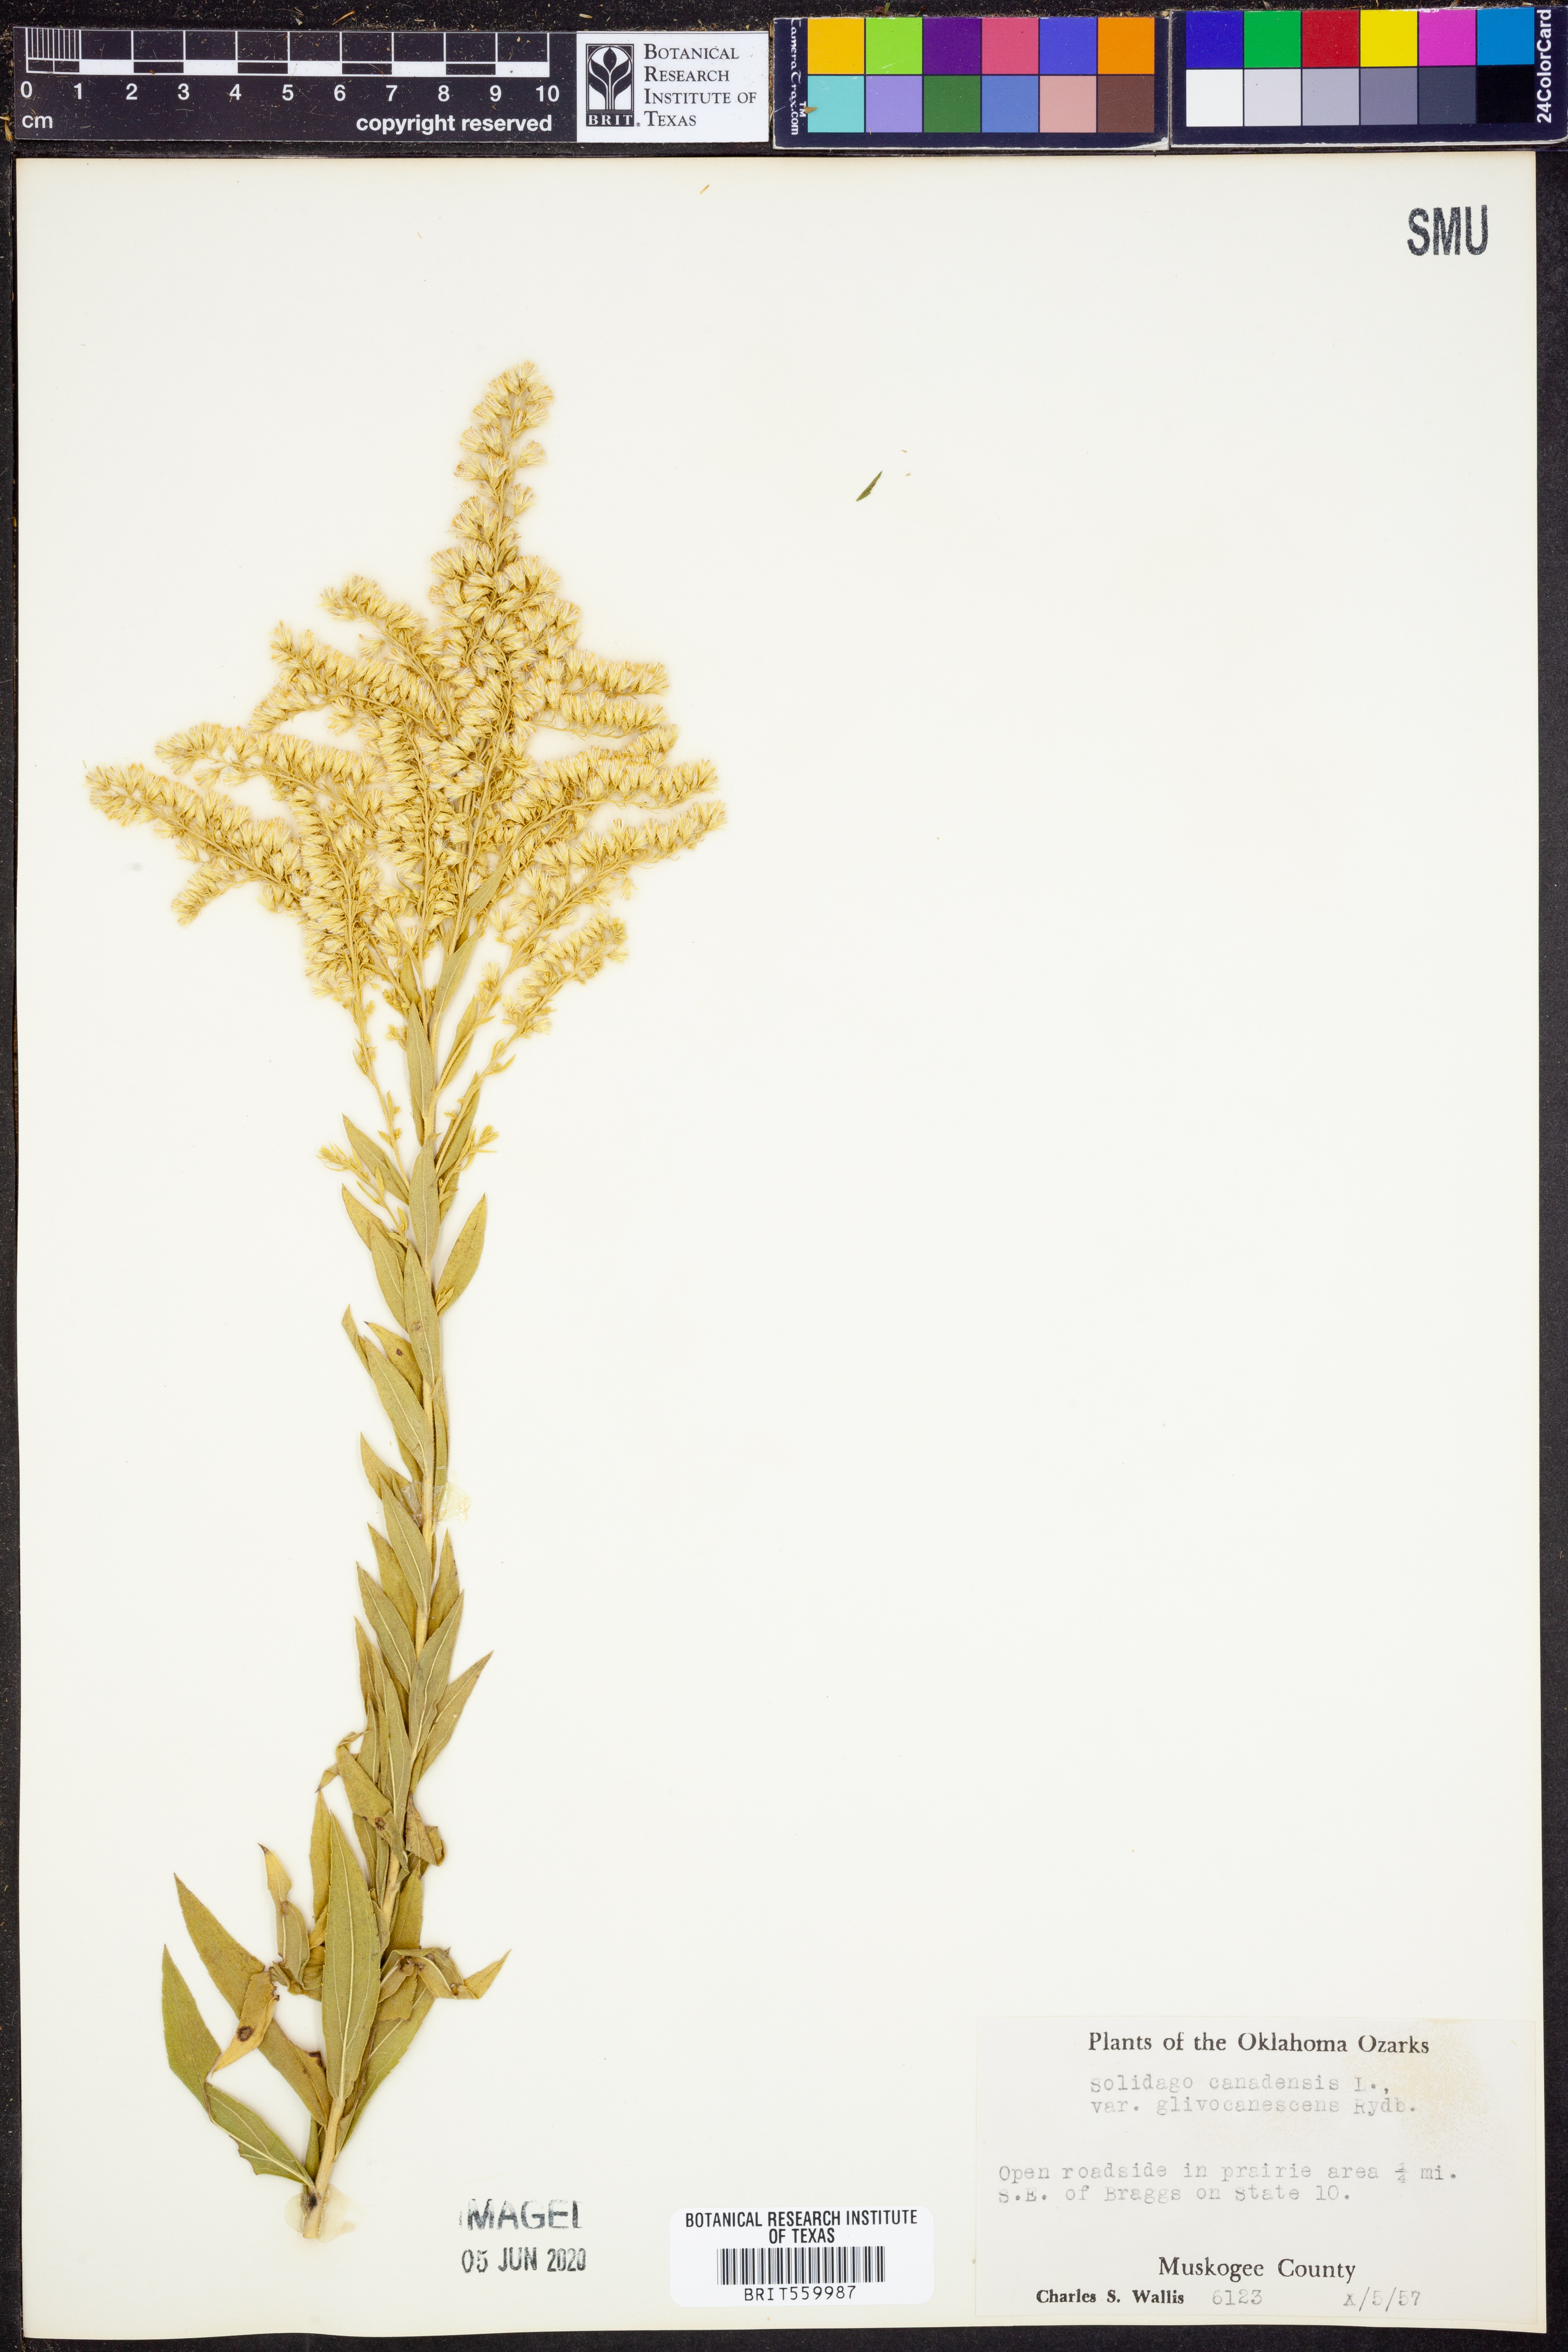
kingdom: Plantae
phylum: Tracheophyta
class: Magnoliopsida
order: Asterales
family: Asteraceae
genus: Solidago
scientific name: Solidago altissima
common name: Late goldenrod
